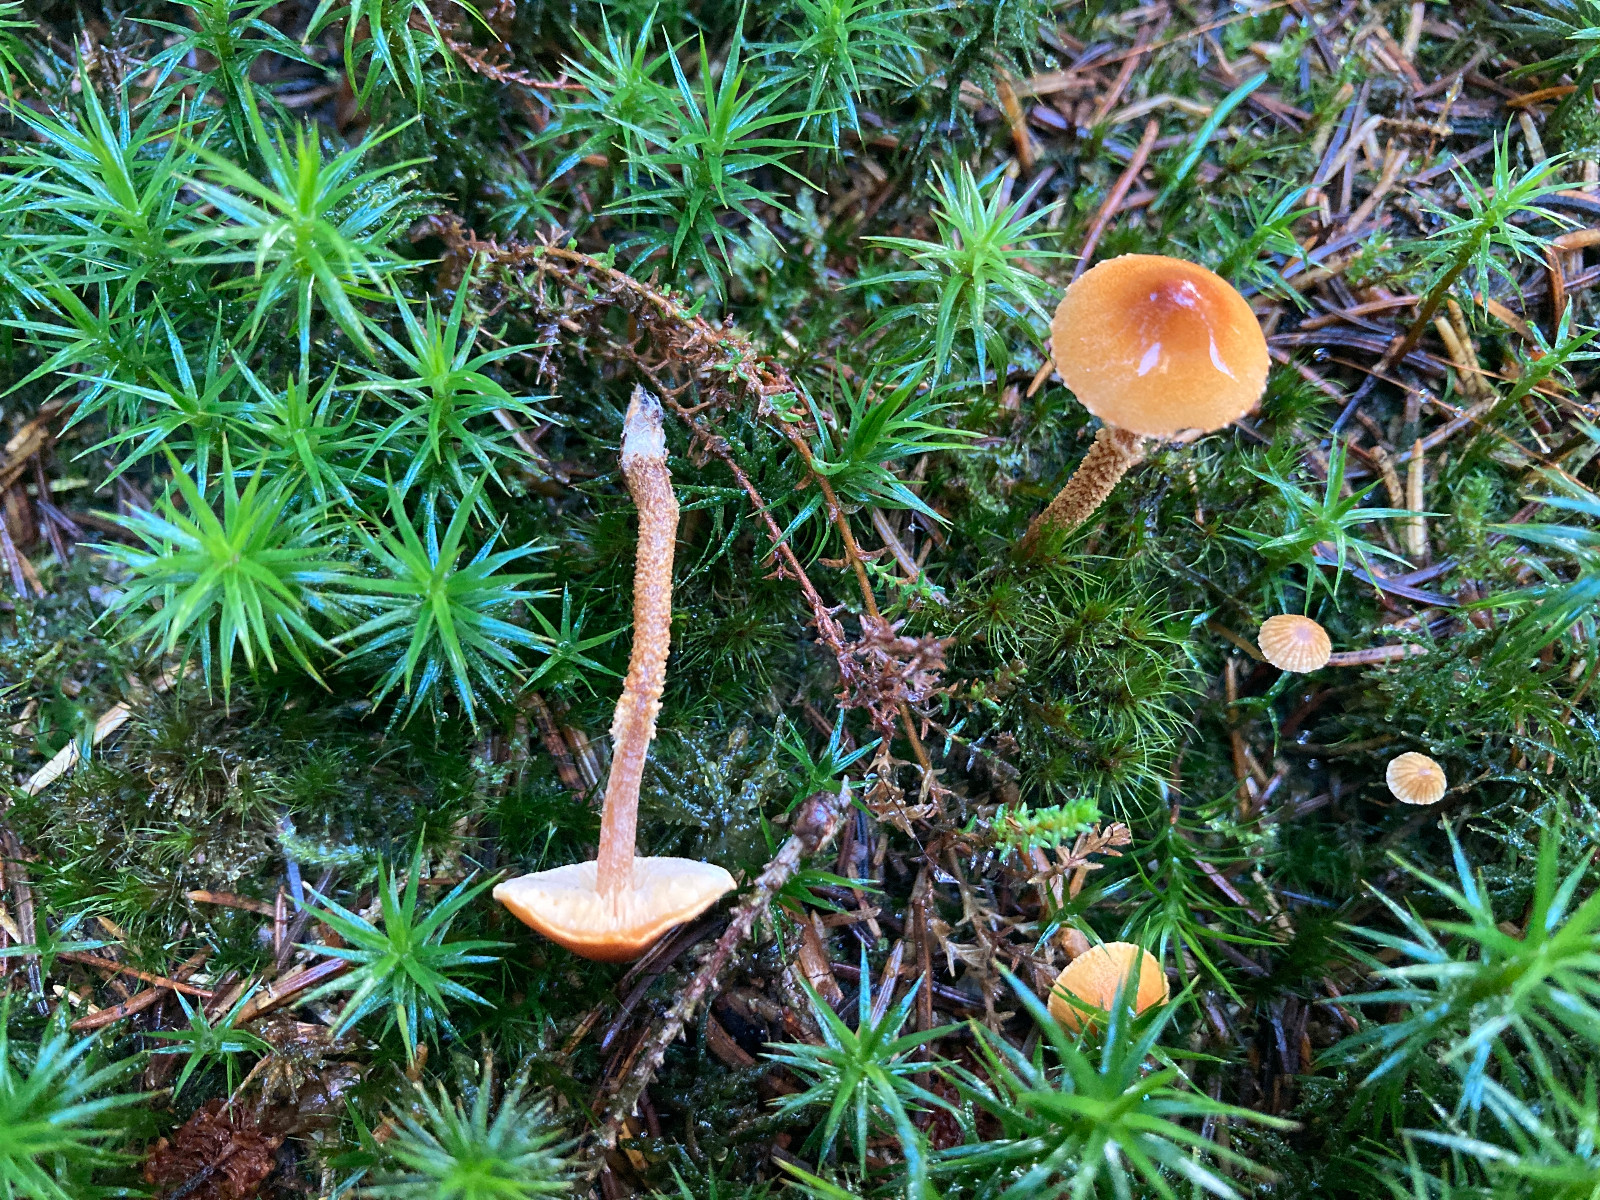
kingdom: Fungi
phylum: Basidiomycota
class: Agaricomycetes
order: Agaricales
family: Tricholomataceae
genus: Cystoderma
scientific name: Cystoderma jasonis
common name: gulkødet grynhat
